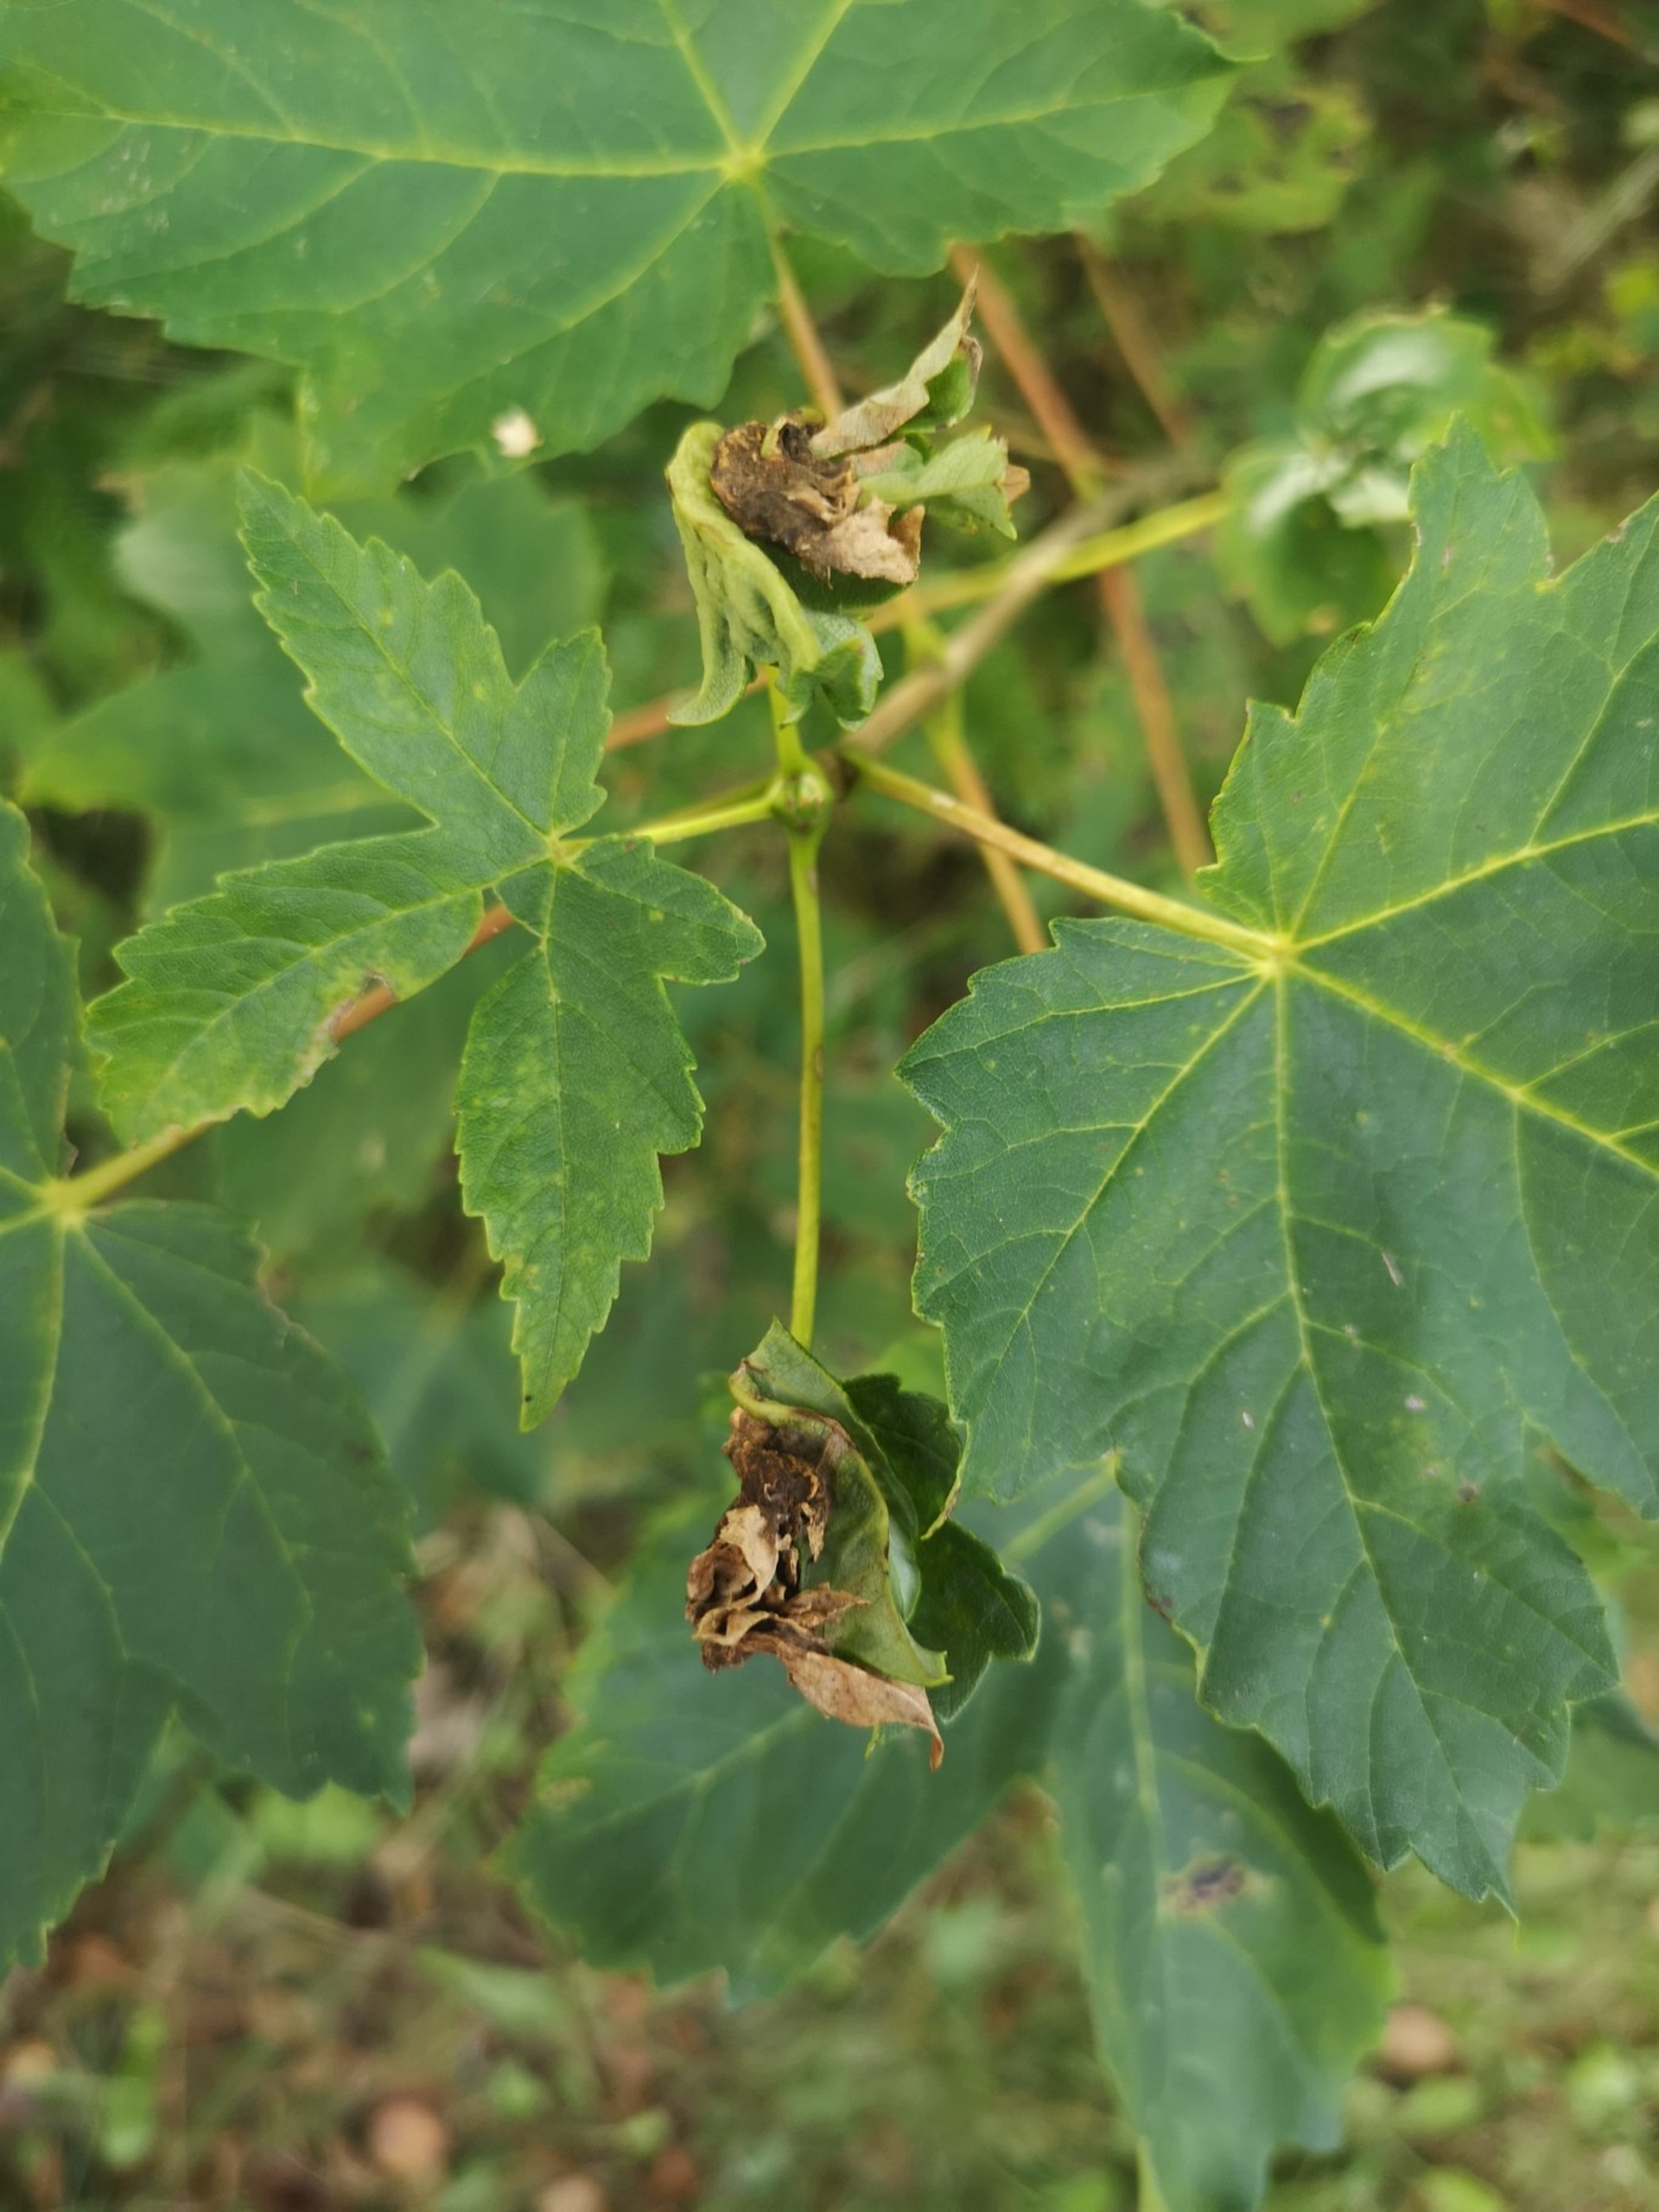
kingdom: Animalia
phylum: Arthropoda
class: Insecta
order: Diptera
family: Cecidomyiidae
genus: Dasineura
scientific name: Dasineura irregularis
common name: Ahornkrusegalmyg
